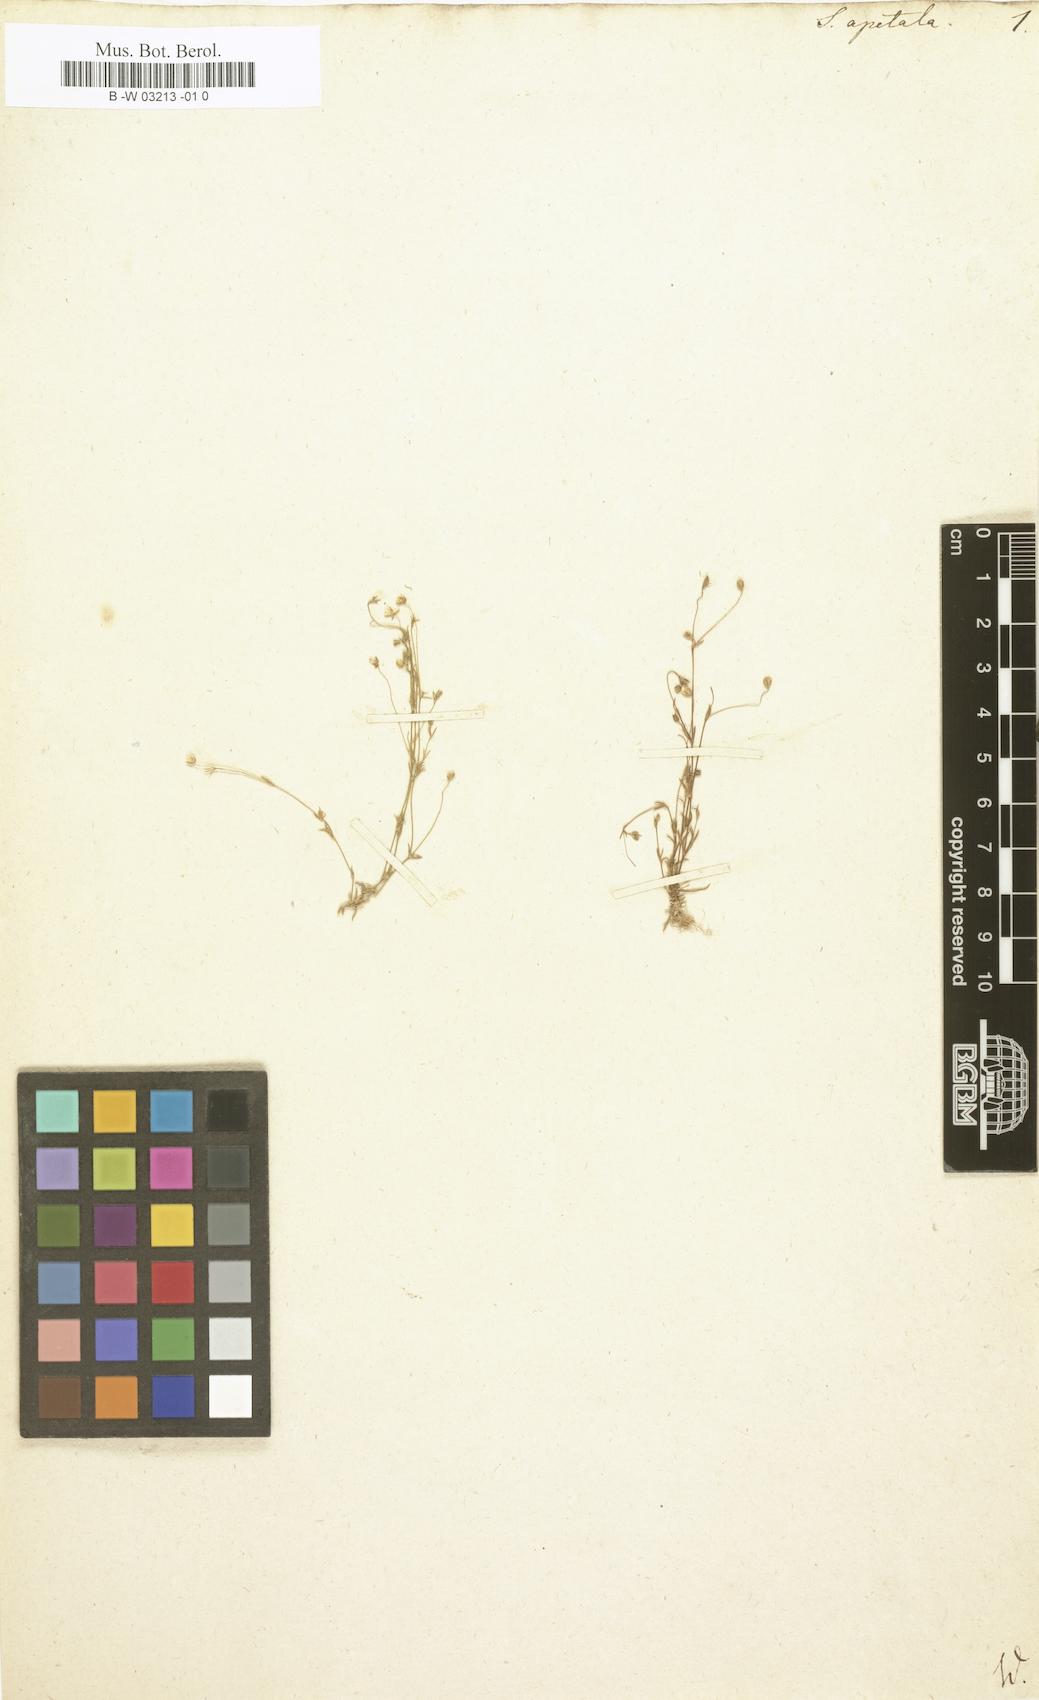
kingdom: Plantae
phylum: Tracheophyta
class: Magnoliopsida
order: Caryophyllales
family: Caryophyllaceae
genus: Sagina
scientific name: Sagina apetala
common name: Annual pearlwort
